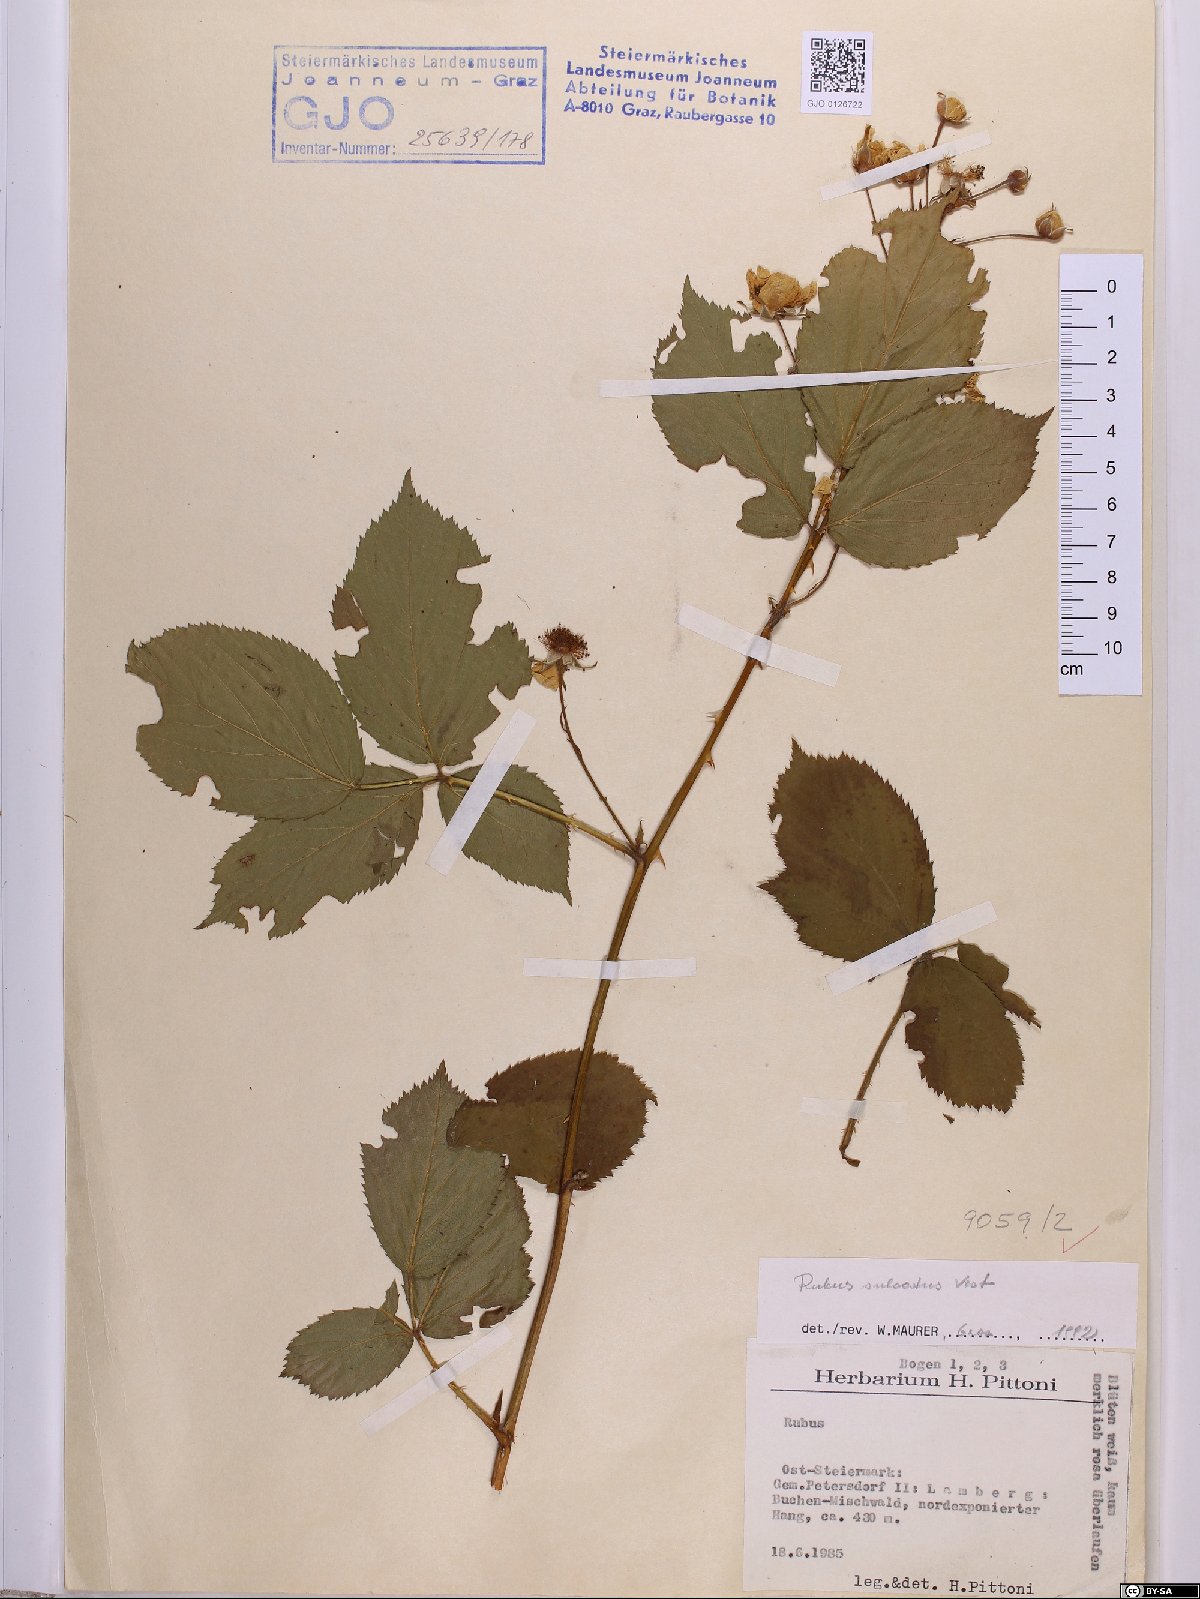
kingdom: Plantae
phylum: Tracheophyta
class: Magnoliopsida
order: Rosales
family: Rosaceae
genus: Rubus
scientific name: Rubus sulcatus
